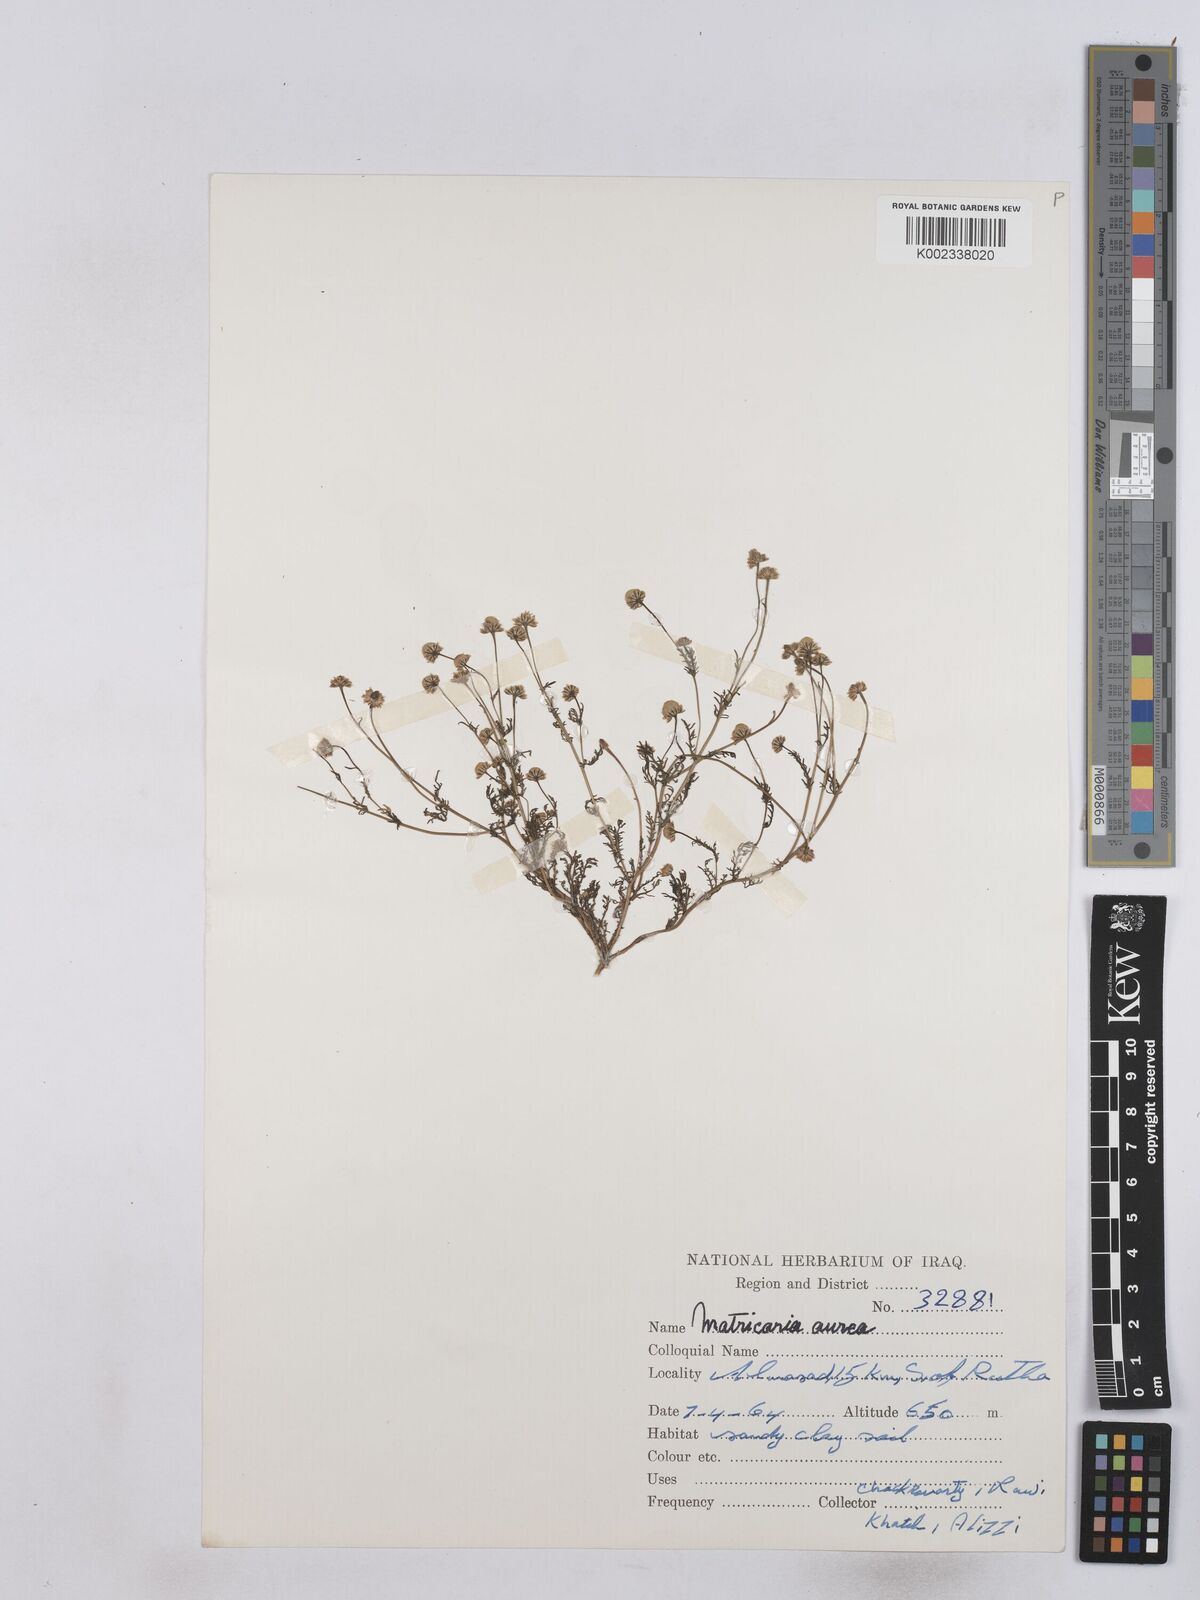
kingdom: Plantae
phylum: Tracheophyta
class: Magnoliopsida
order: Asterales
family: Asteraceae
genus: Matricaria
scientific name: Matricaria aurea
